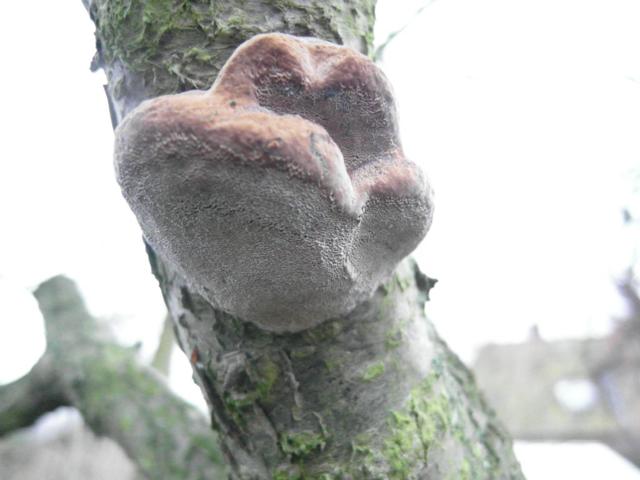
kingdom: Fungi
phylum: Basidiomycota
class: Agaricomycetes
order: Hymenochaetales
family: Hymenochaetaceae
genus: Phellinus
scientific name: Phellinus pomaceus
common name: blomme-ildporesvamp
